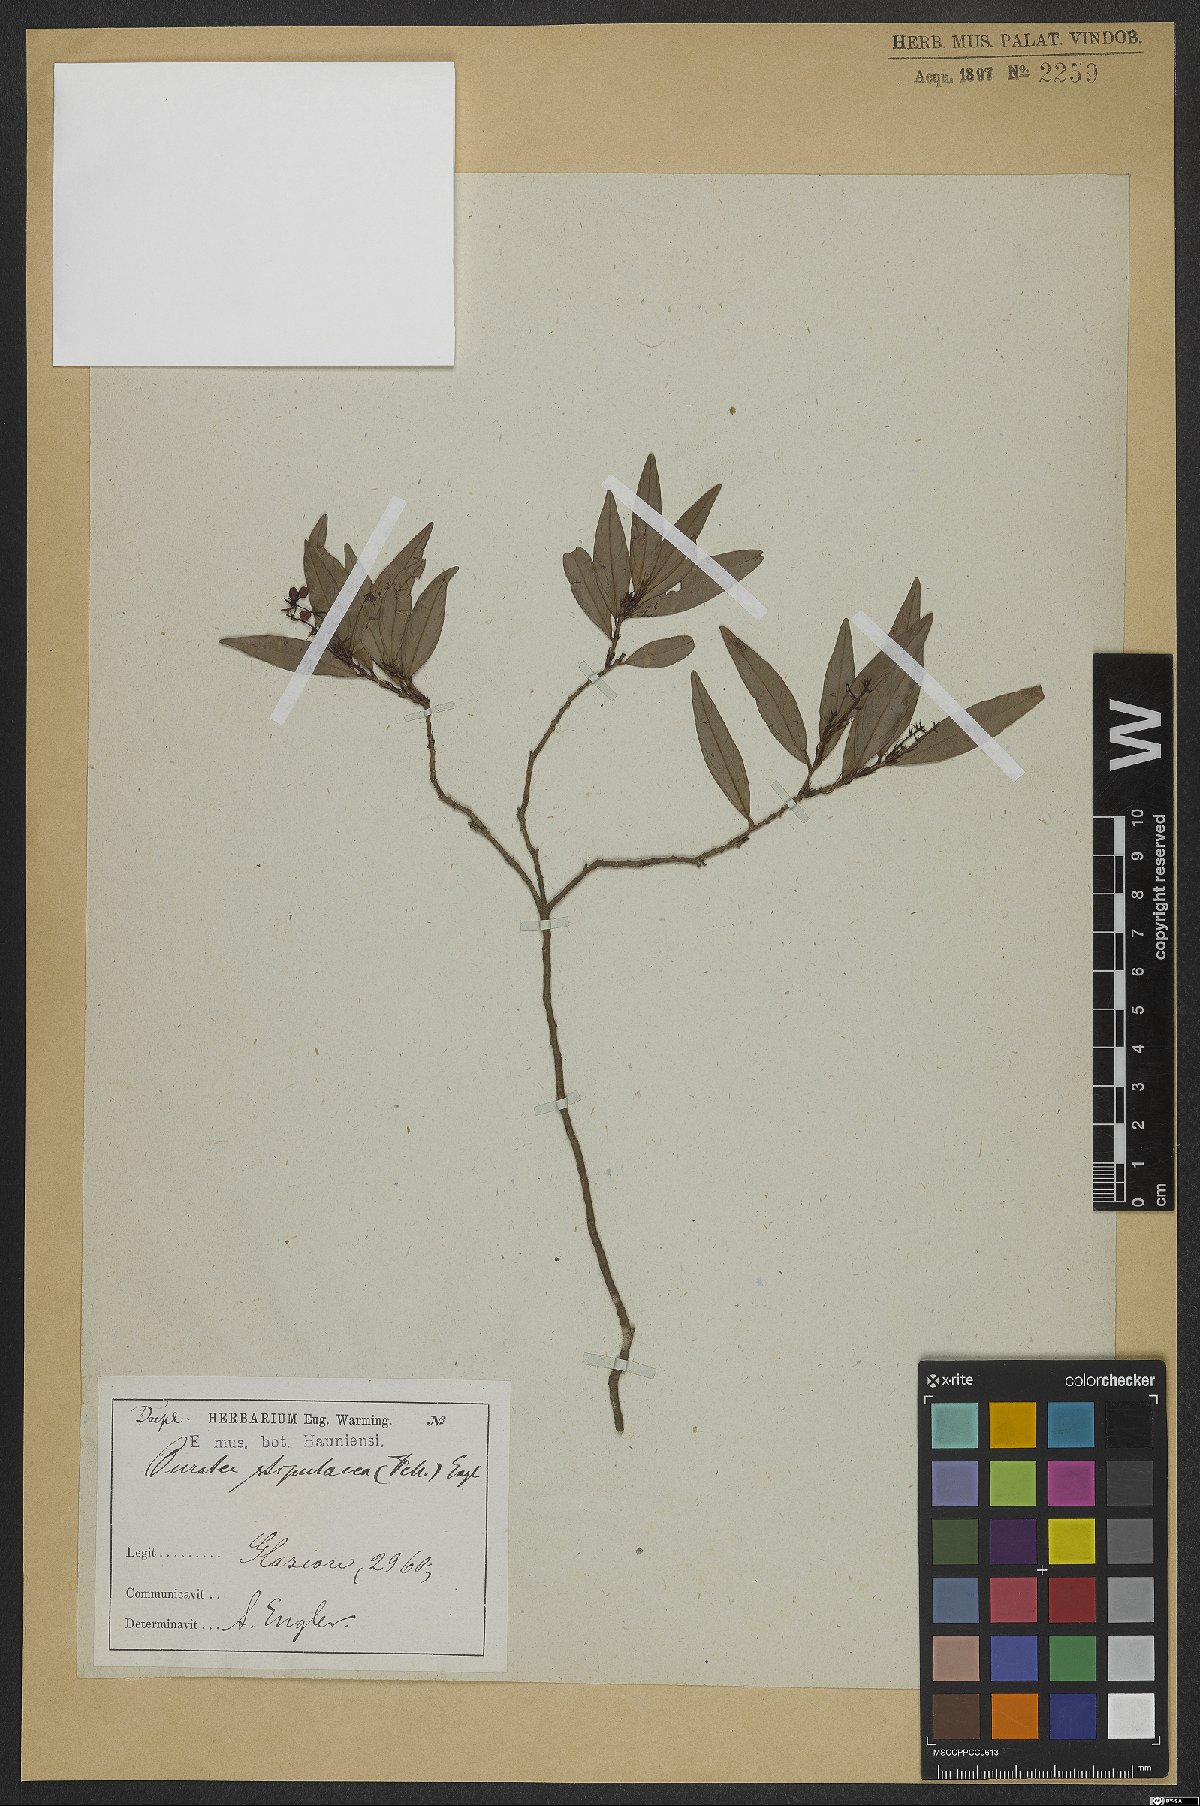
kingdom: Plantae
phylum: Tracheophyta
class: Magnoliopsida
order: Malpighiales
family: Ochnaceae
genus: Ouratea
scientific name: Ouratea stipulata
